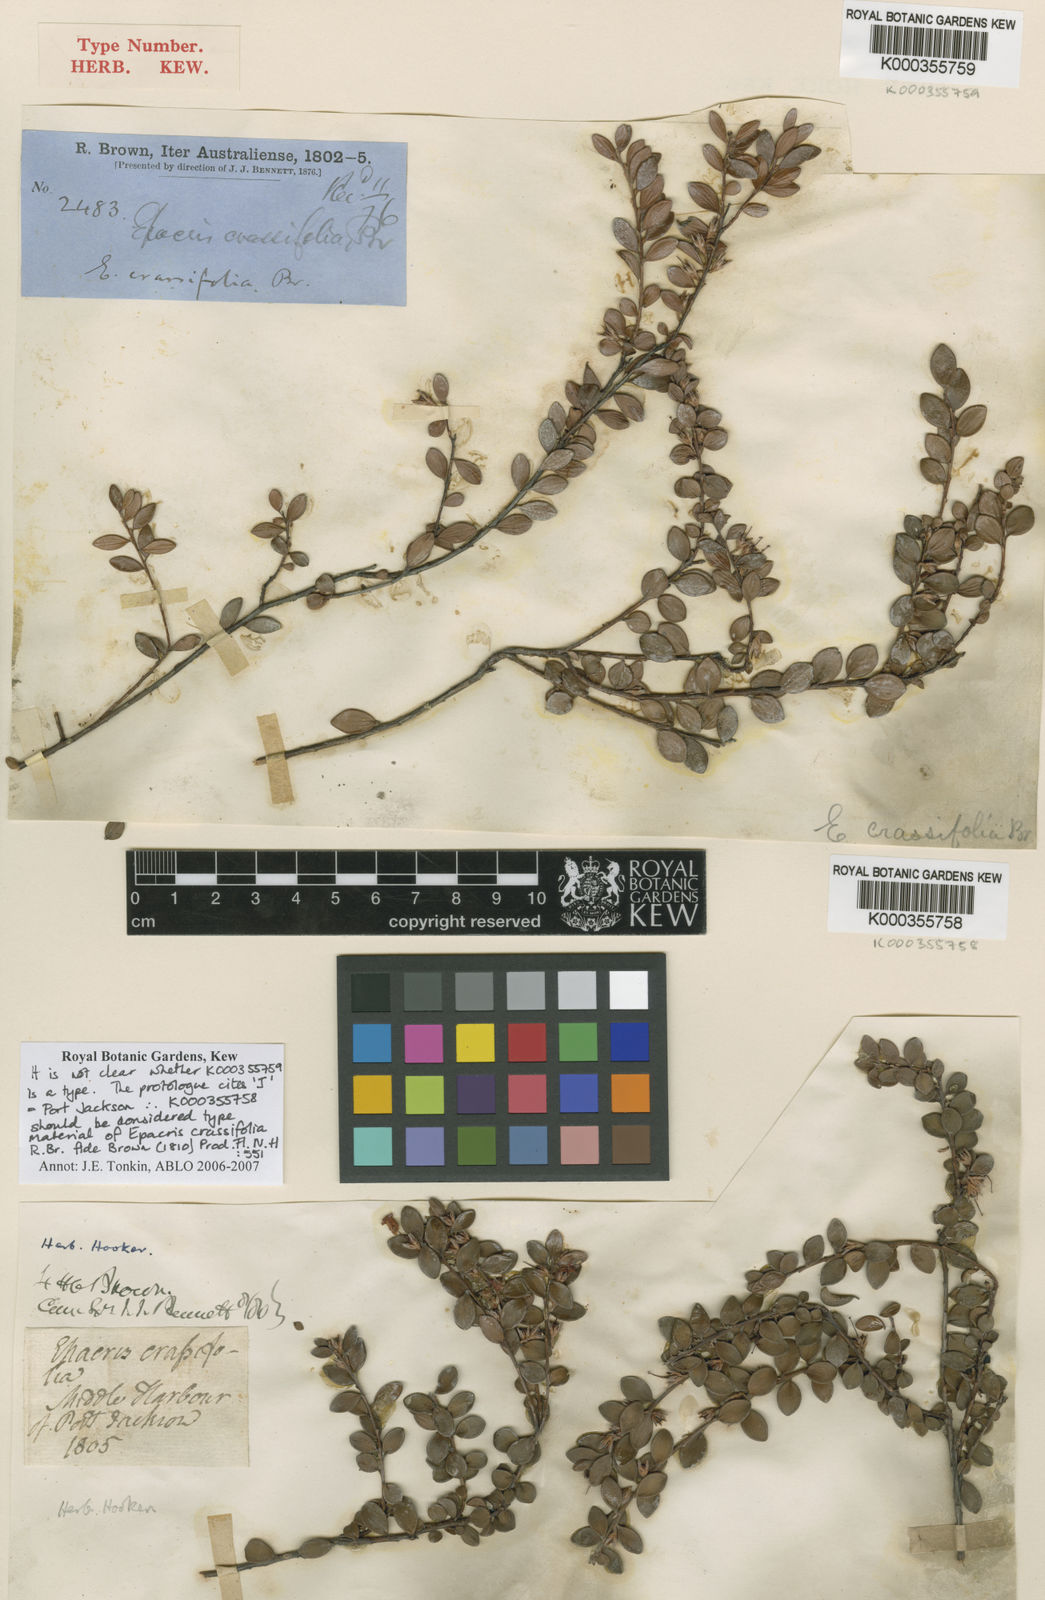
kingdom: Plantae
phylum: Tracheophyta
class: Magnoliopsida
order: Ericales
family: Ericaceae
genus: Epacris
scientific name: Epacris crassifolia
